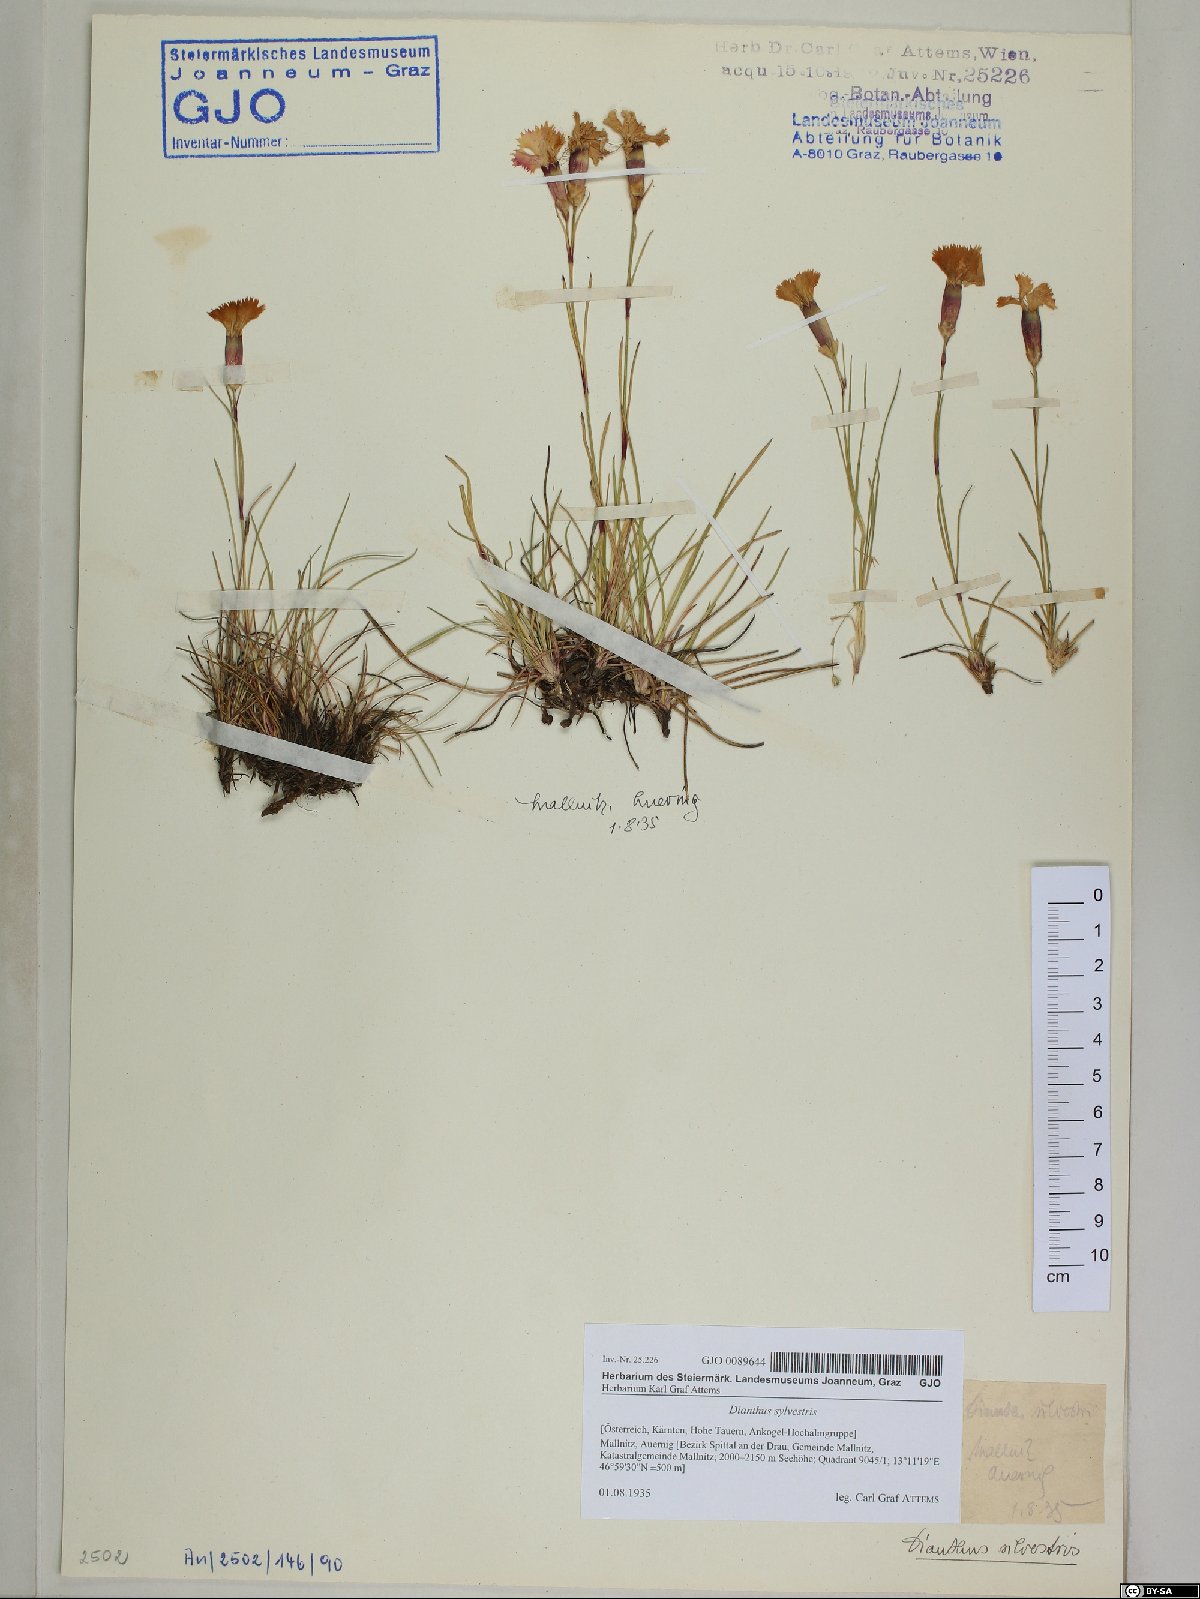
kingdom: Plantae
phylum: Tracheophyta
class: Magnoliopsida
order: Caryophyllales
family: Caryophyllaceae
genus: Dianthus
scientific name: Dianthus sylvestris
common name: Wood pink
